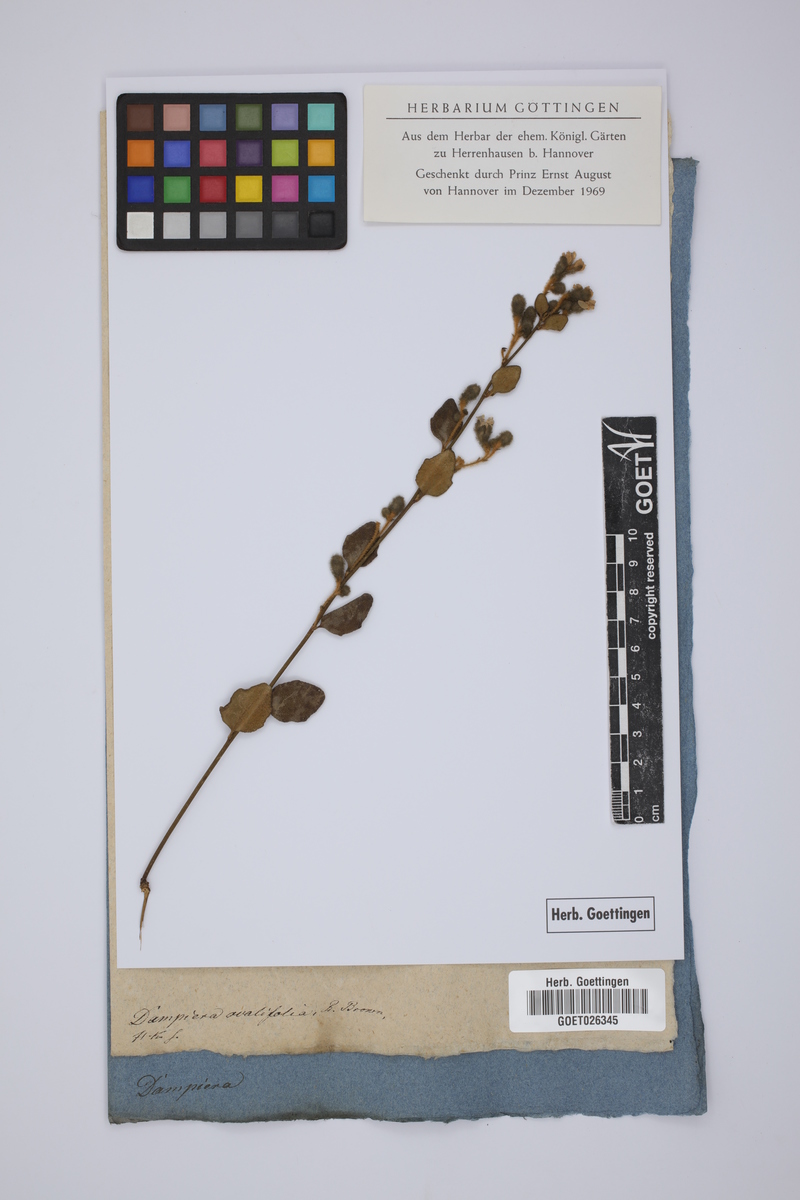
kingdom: Plantae
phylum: Tracheophyta
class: Magnoliopsida
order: Asterales
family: Goodeniaceae
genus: Dampiera
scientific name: Dampiera purpurea
